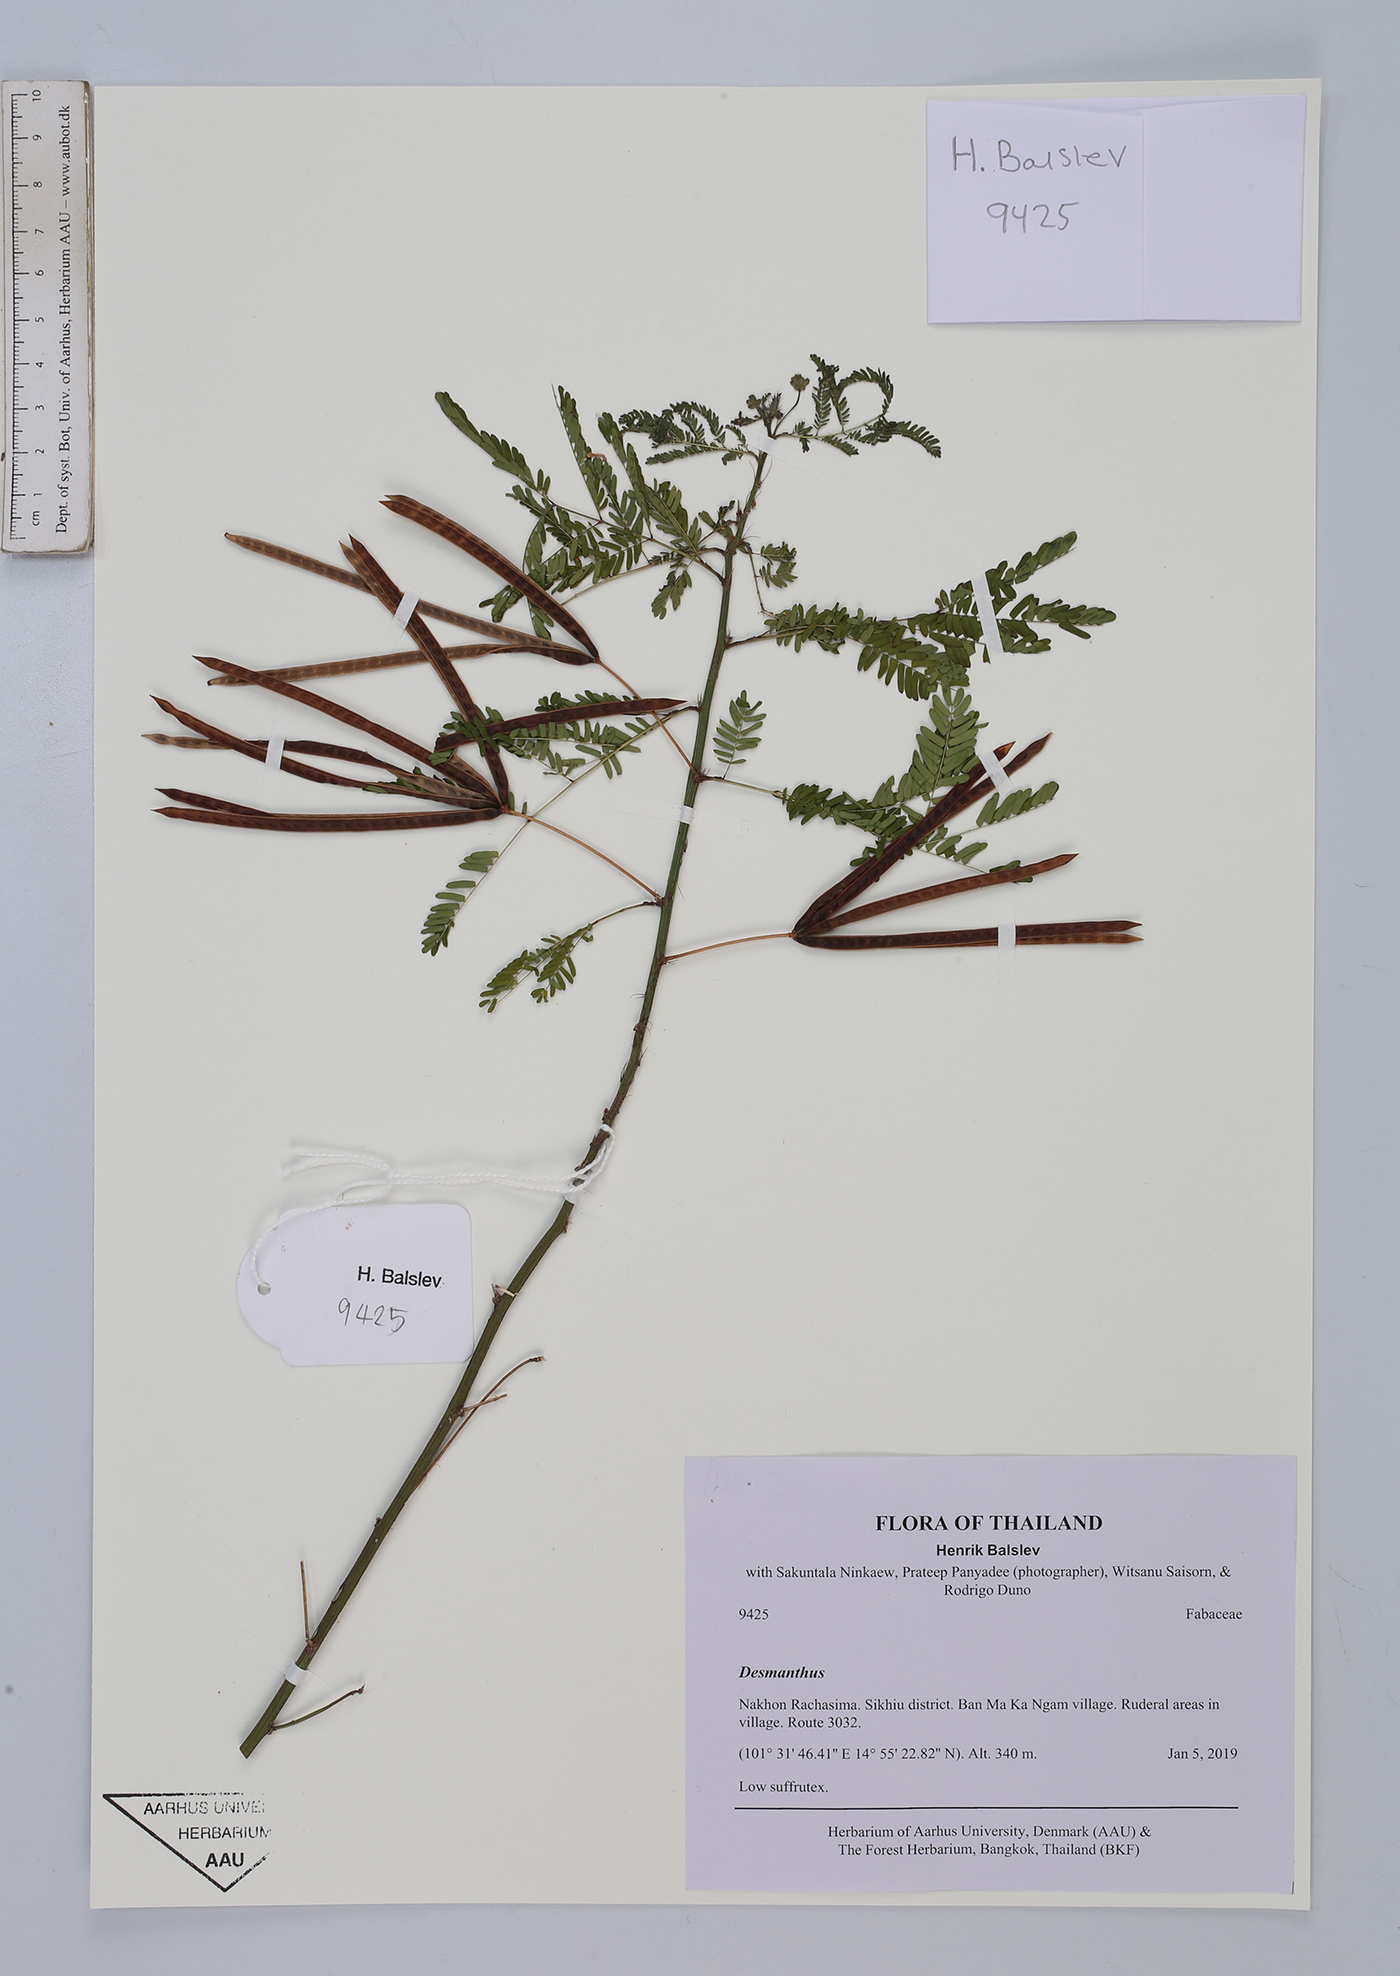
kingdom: Plantae
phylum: Tracheophyta
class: Magnoliopsida
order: Fabales
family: Fabaceae
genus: Desmanthus
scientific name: Desmanthus virgatus
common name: Wild tantan
